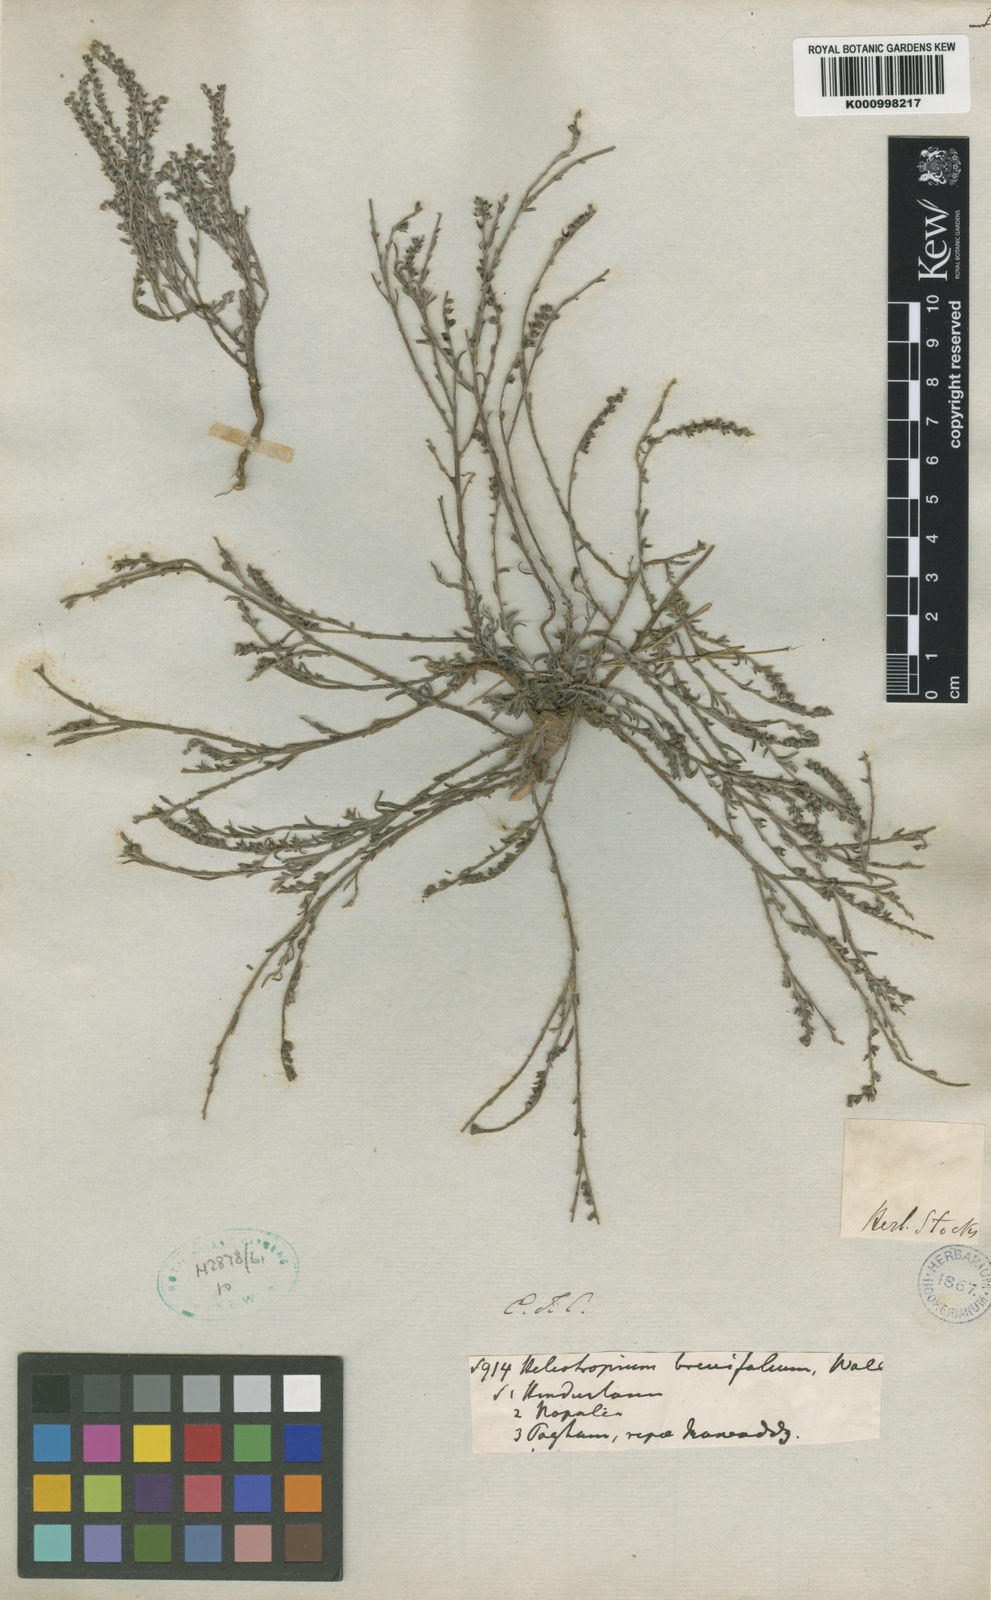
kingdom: Plantae
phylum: Tracheophyta
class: Magnoliopsida
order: Boraginales
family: Heliotropiaceae
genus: Euploca
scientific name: Euploca strigosa
